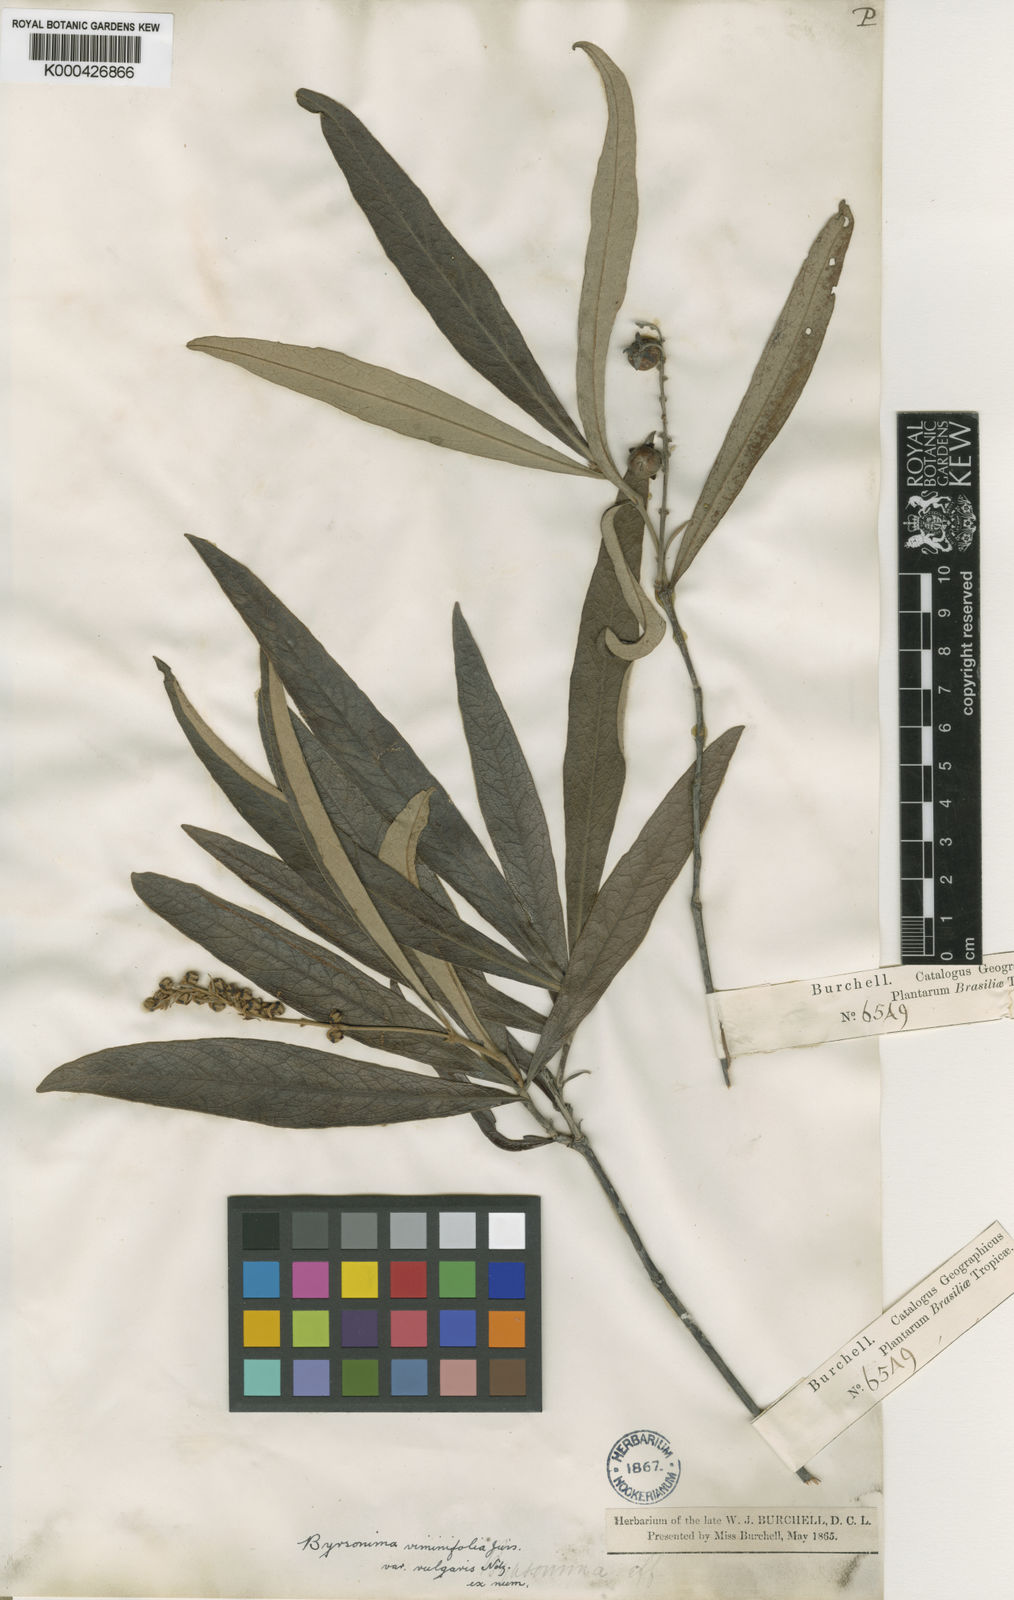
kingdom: Plantae
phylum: Tracheophyta
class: Magnoliopsida
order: Malpighiales
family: Malpighiaceae
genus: Byrsonima
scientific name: Byrsonima viminifolia
